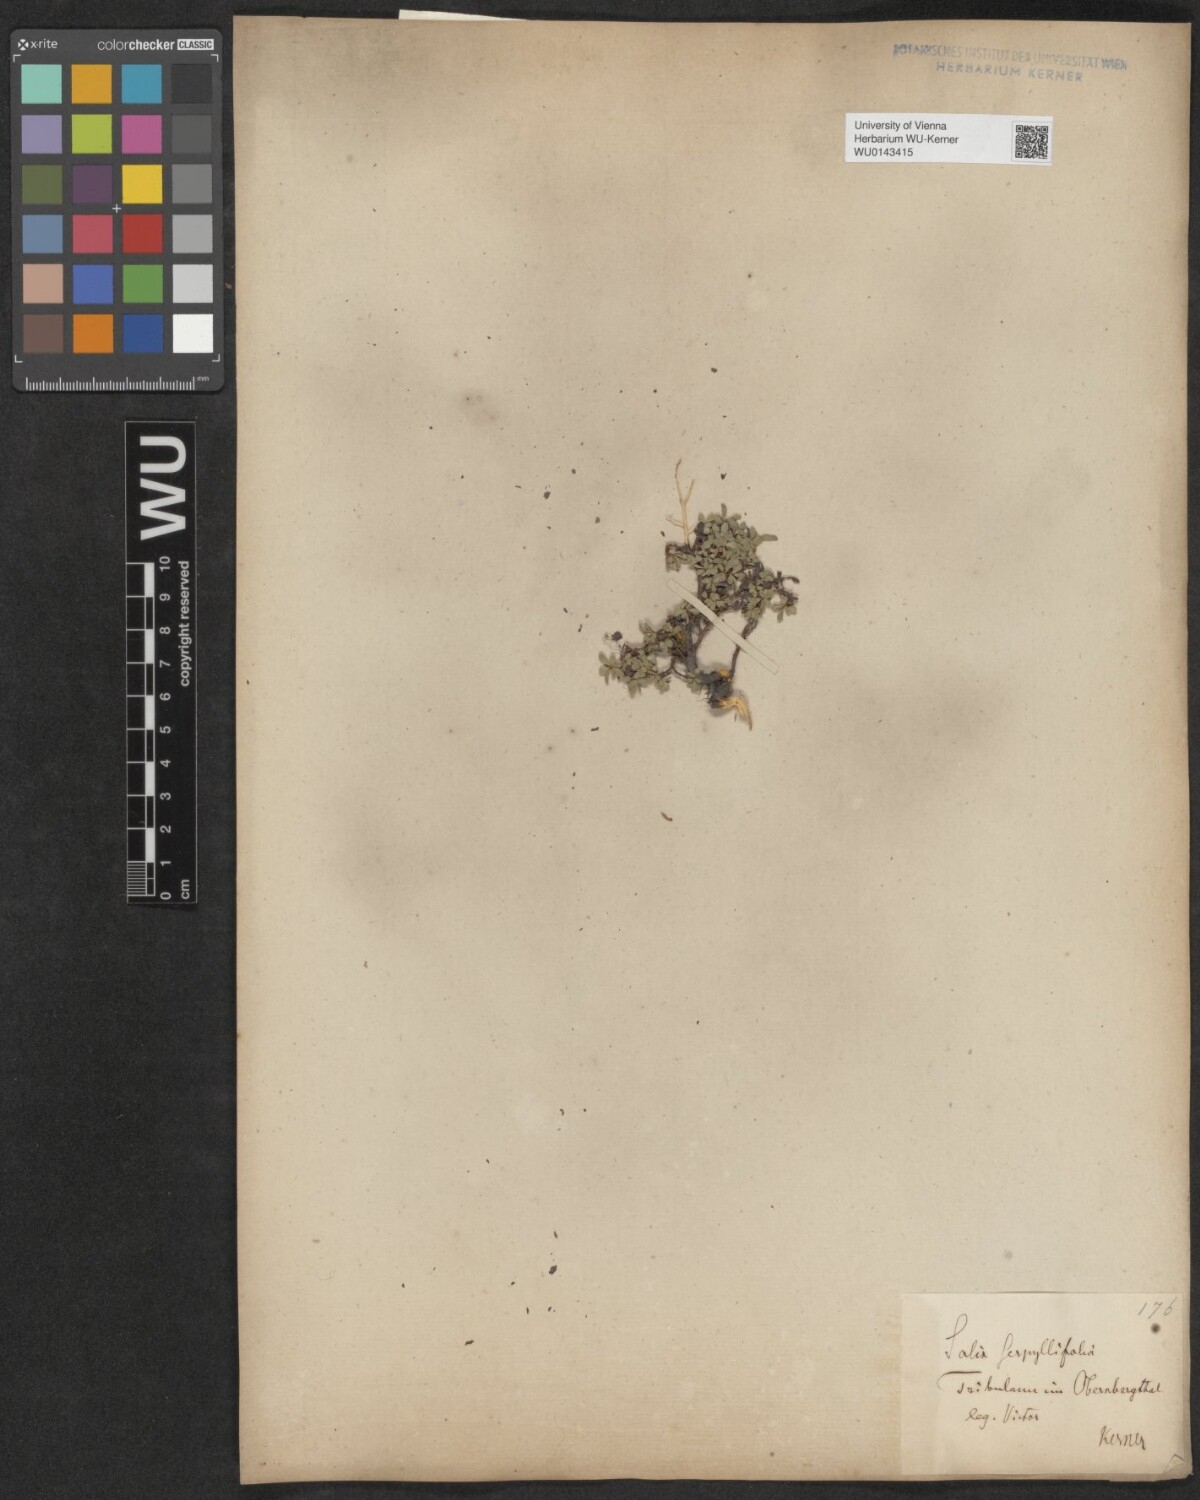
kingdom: Plantae
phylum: Tracheophyta
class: Magnoliopsida
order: Malpighiales
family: Salicaceae
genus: Salix
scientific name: Salix serpillifolia
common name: Thyme-leaf willow
